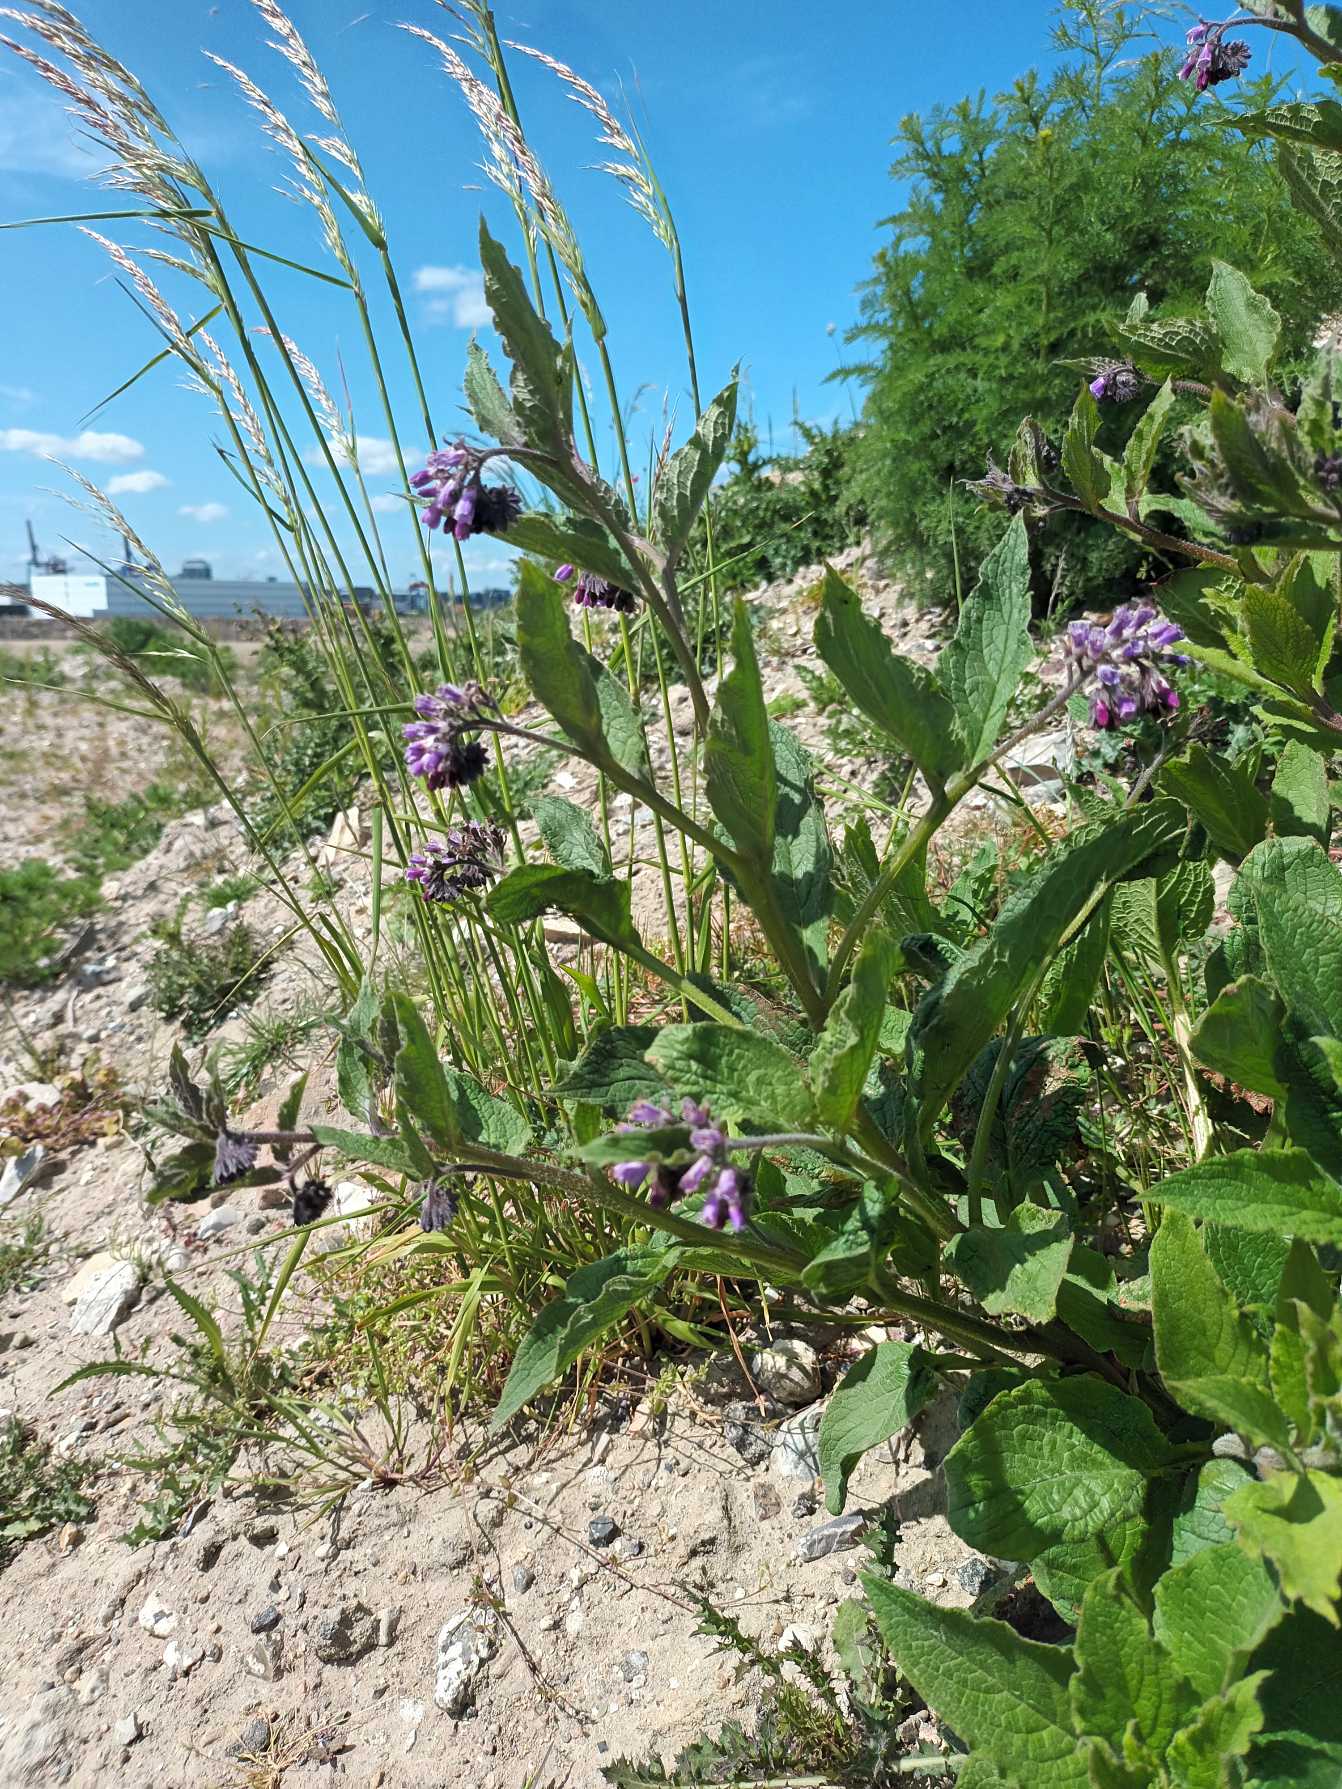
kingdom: Plantae
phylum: Tracheophyta
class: Magnoliopsida
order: Boraginales
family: Boraginaceae
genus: Symphytum
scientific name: Symphytum uplandicum
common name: Foder-kulsukker
